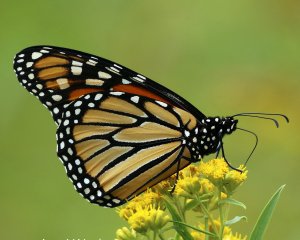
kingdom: Animalia
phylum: Arthropoda
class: Insecta
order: Lepidoptera
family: Nymphalidae
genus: Danaus
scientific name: Danaus plexippus
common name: Monarch
